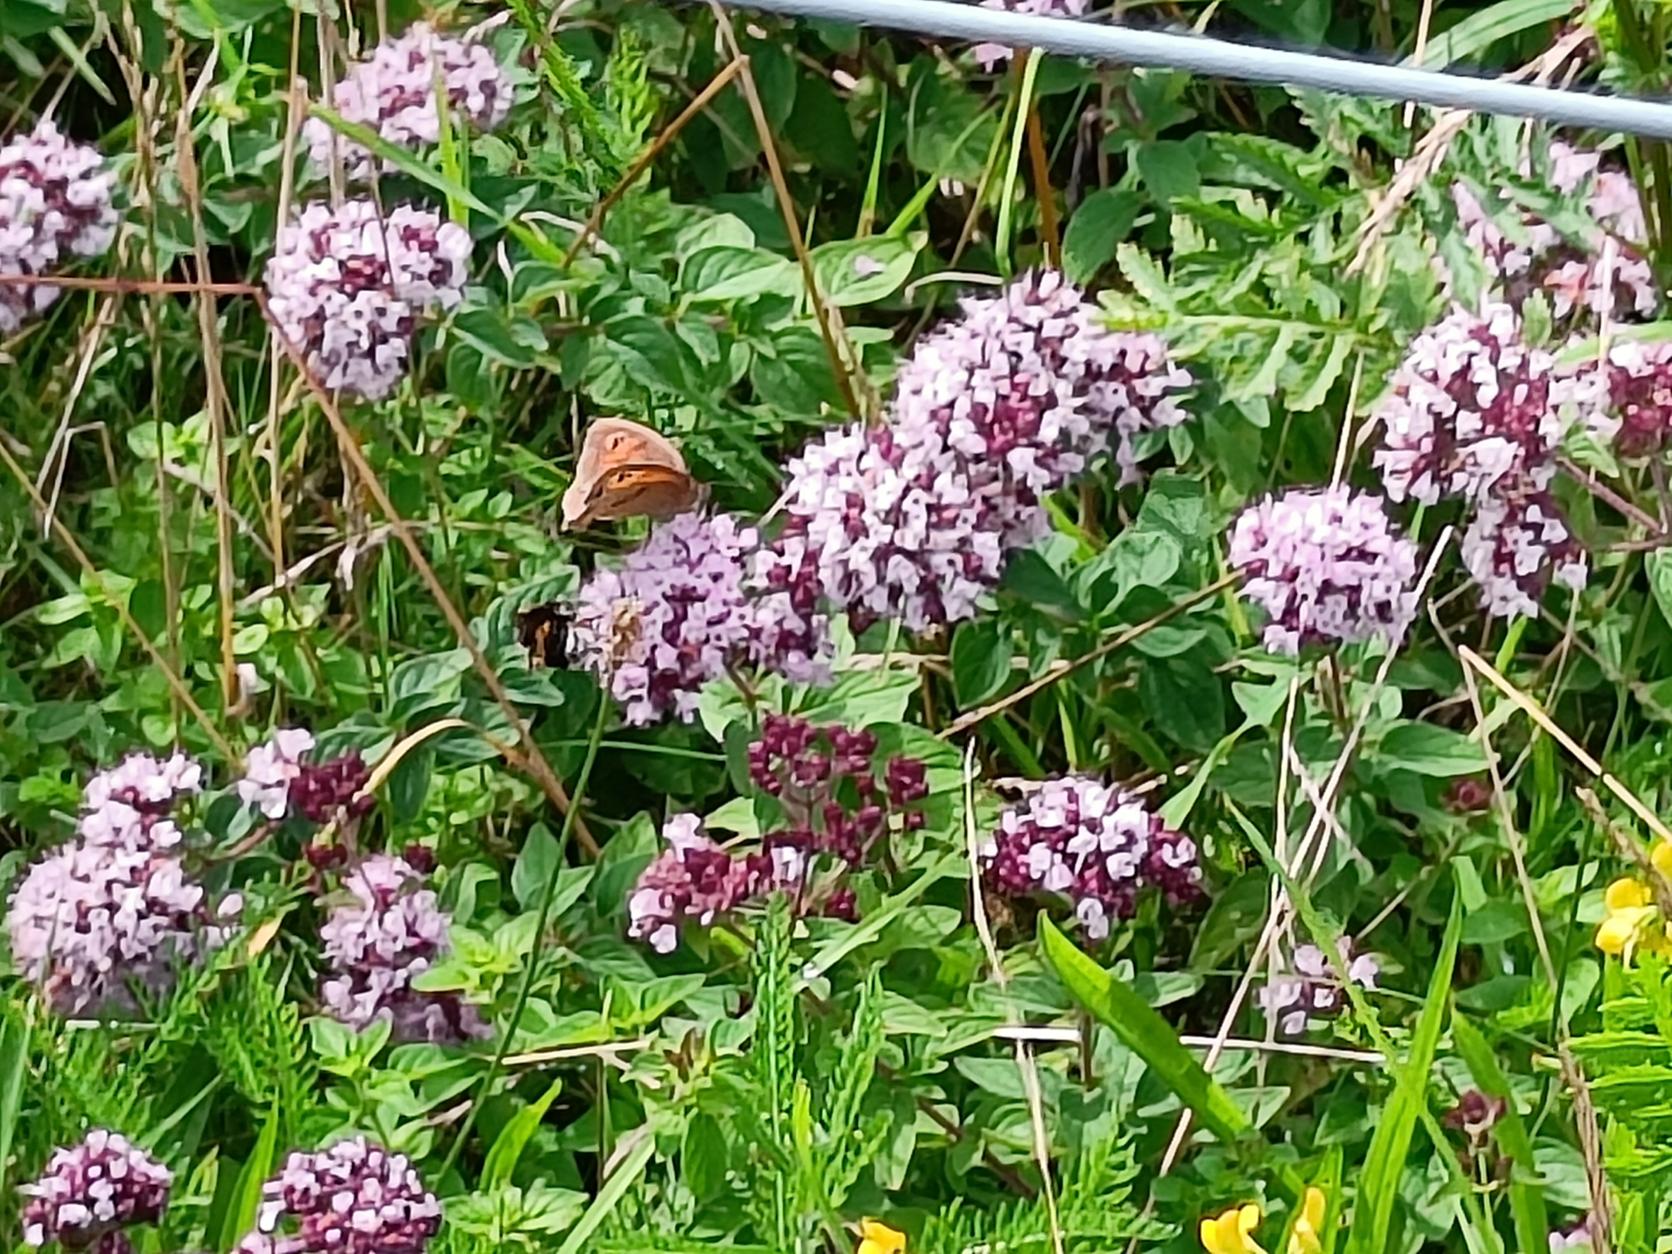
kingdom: Animalia
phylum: Arthropoda
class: Insecta
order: Lepidoptera
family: Nymphalidae
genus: Maniola
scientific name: Maniola jurtina
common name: Græsrandøje
